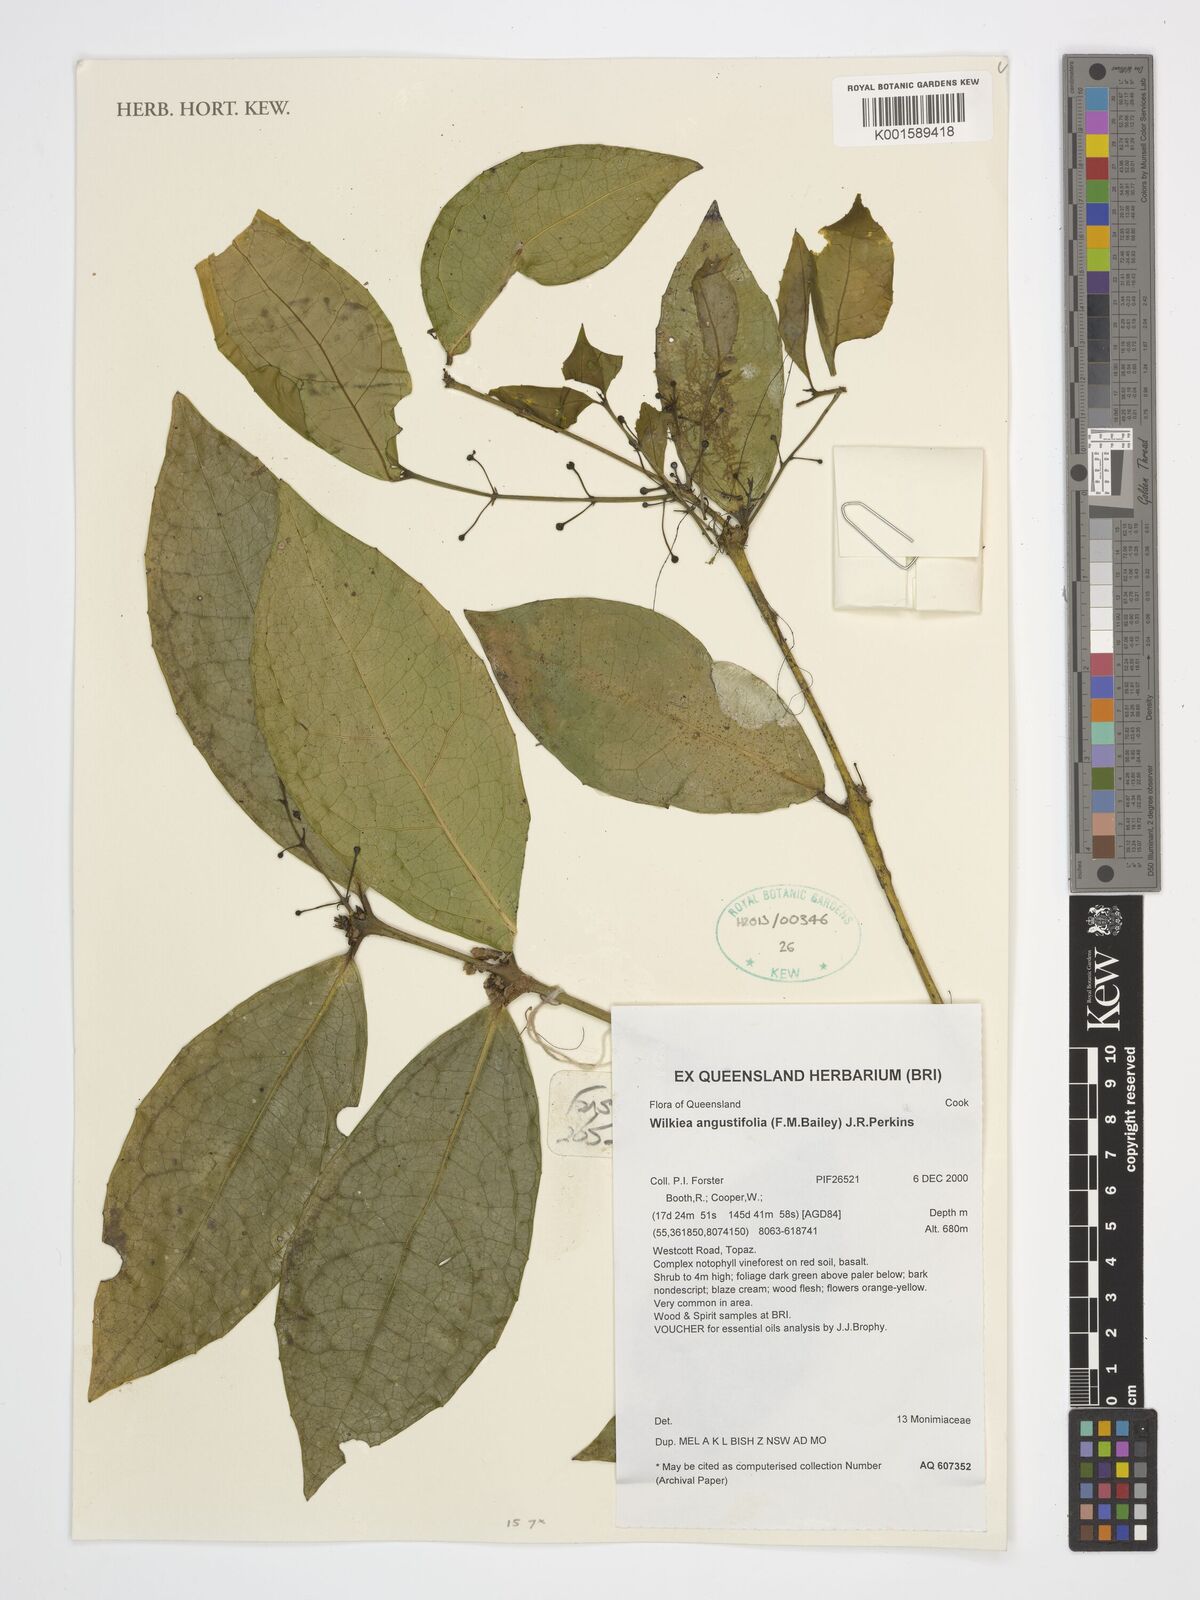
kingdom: Plantae
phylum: Tracheophyta
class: Magnoliopsida
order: Laurales
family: Monimiaceae
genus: Wilkiea
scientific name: Wilkiea angustifolia
